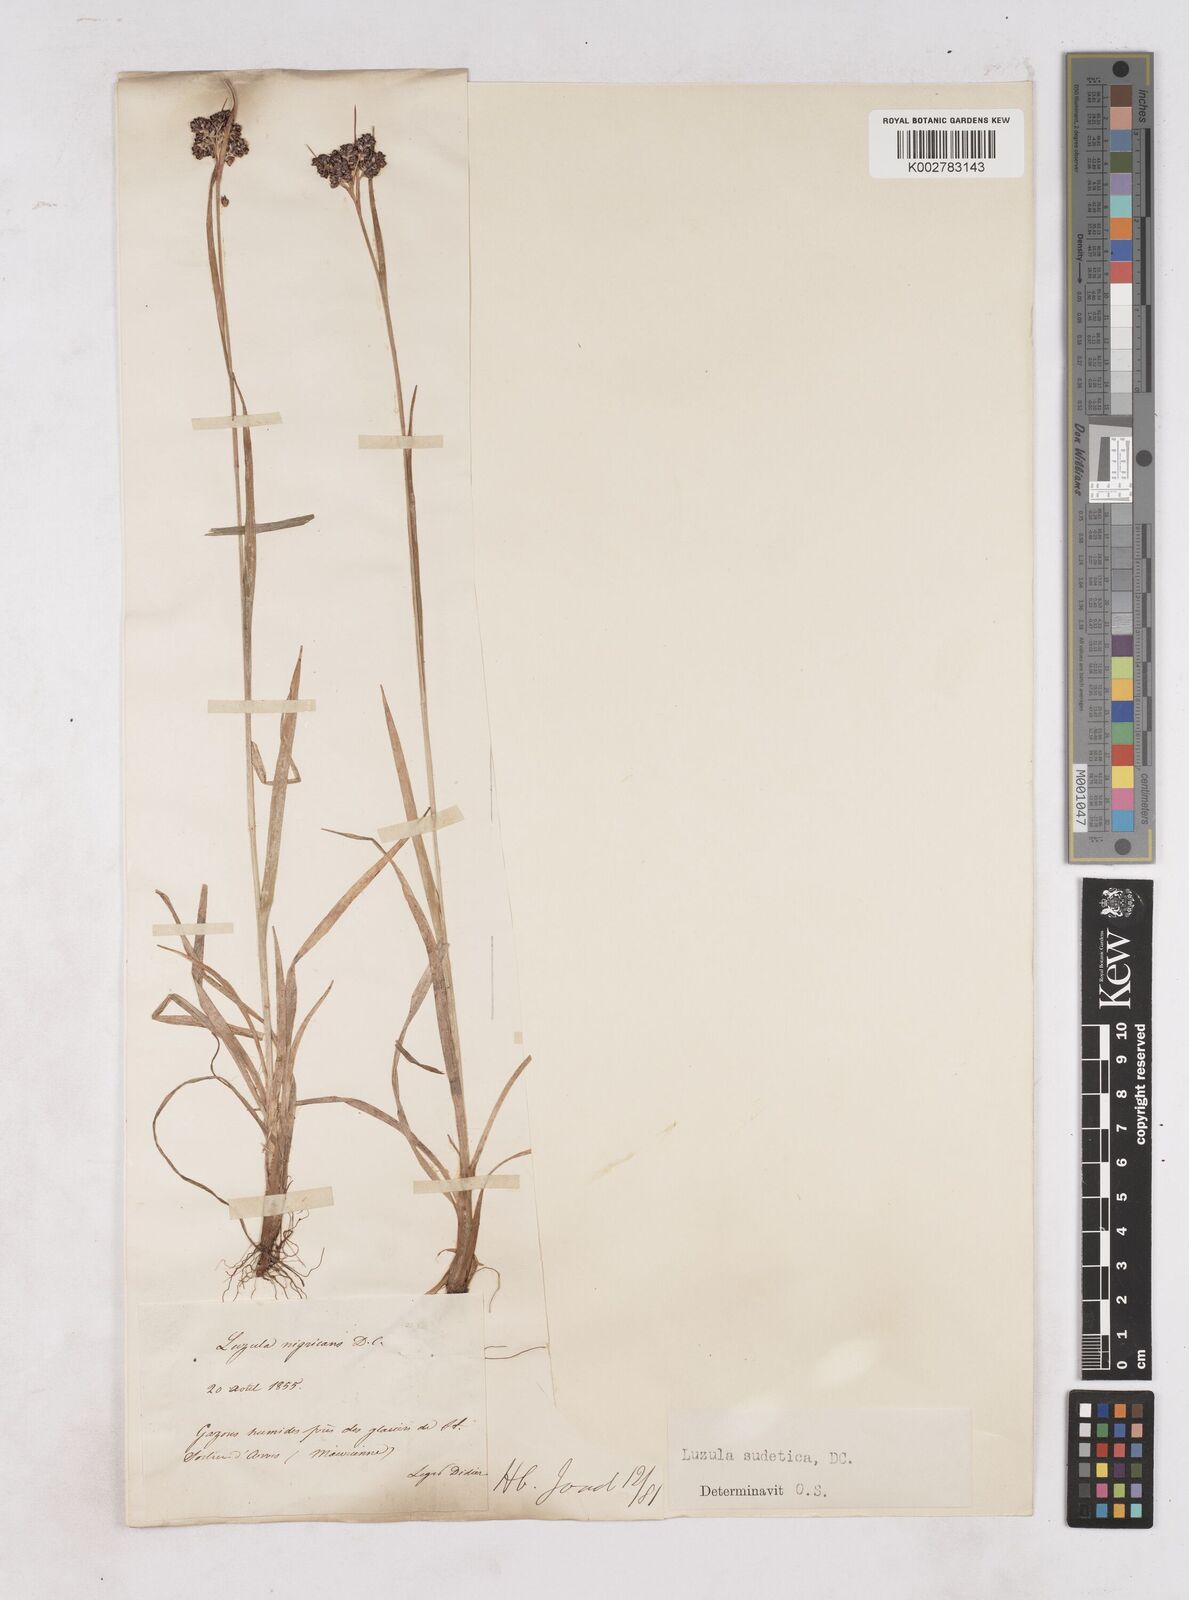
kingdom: Plantae
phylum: Tracheophyta
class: Liliopsida
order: Poales
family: Juncaceae
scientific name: Juncaceae
